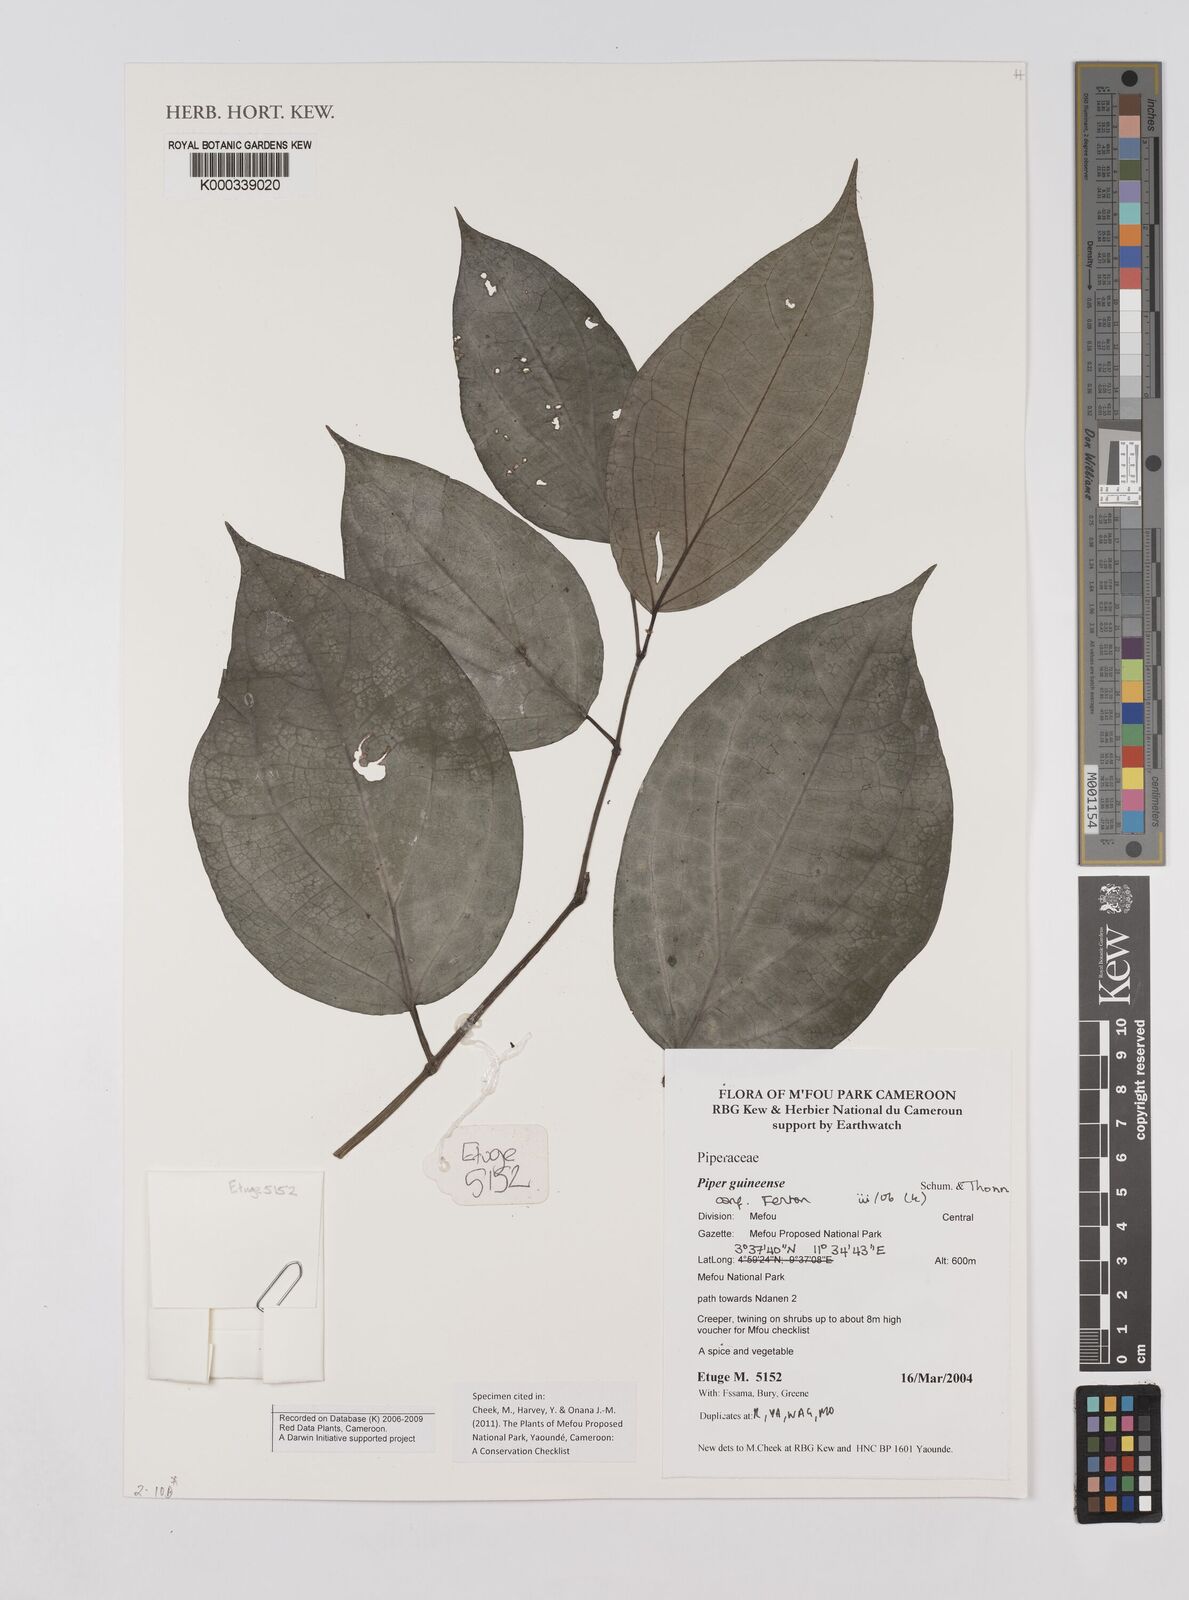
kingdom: Plantae
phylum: Tracheophyta
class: Magnoliopsida
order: Piperales
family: Piperaceae
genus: Piper
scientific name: Piper guineense
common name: Benin pepper
